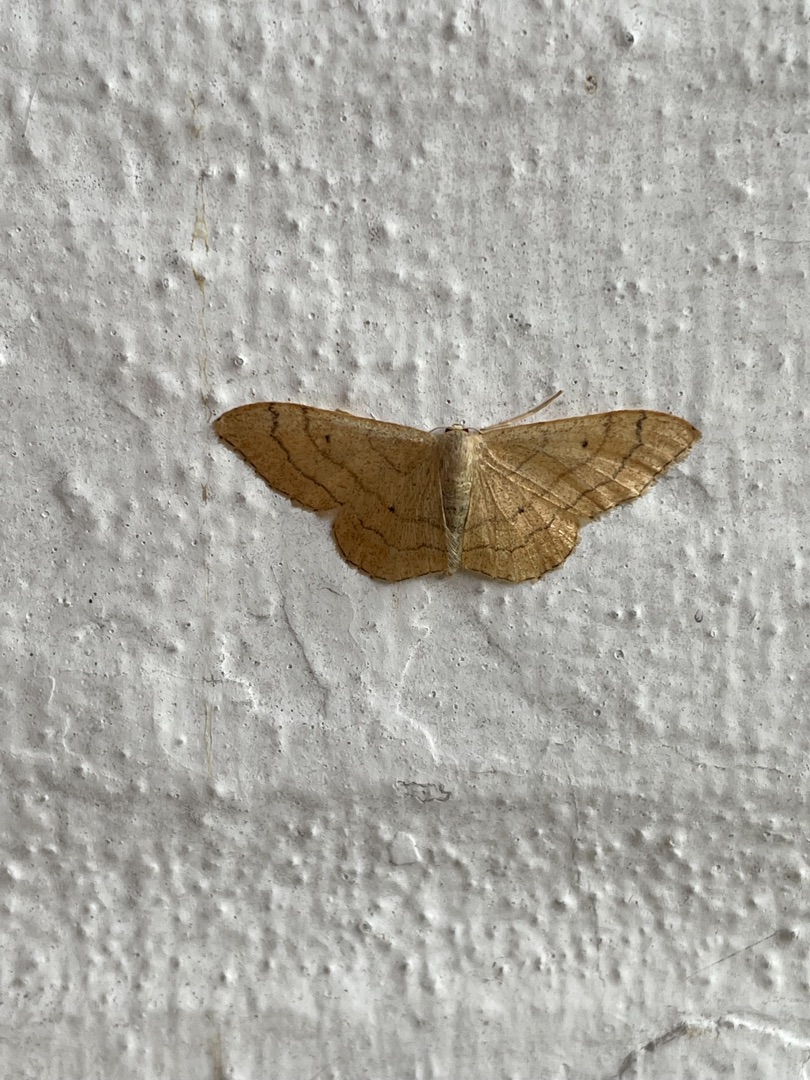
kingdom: Animalia
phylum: Arthropoda
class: Insecta
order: Lepidoptera
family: Geometridae
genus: Idaea
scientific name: Idaea aversata
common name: Vinkelstreget løvmåler
